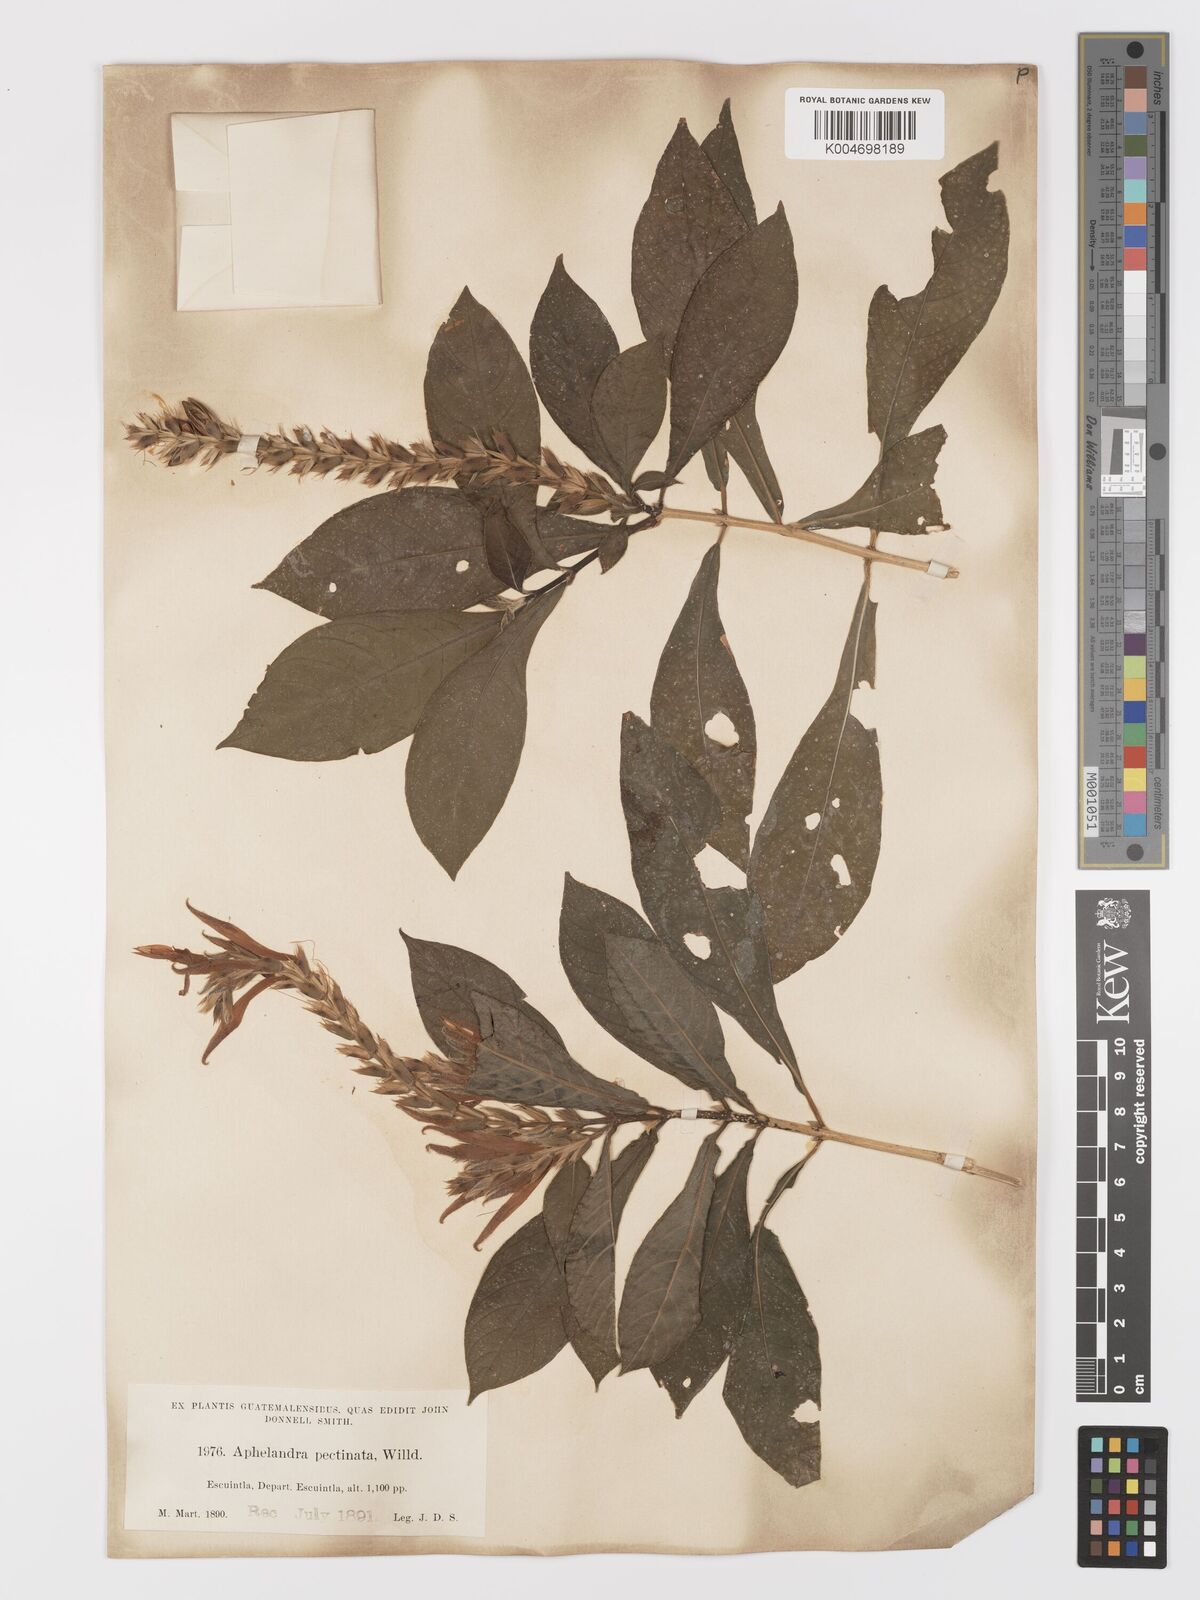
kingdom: Plantae
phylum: Tracheophyta
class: Magnoliopsida
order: Lamiales
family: Acanthaceae
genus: Aphelandra
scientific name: Aphelandra scabra
